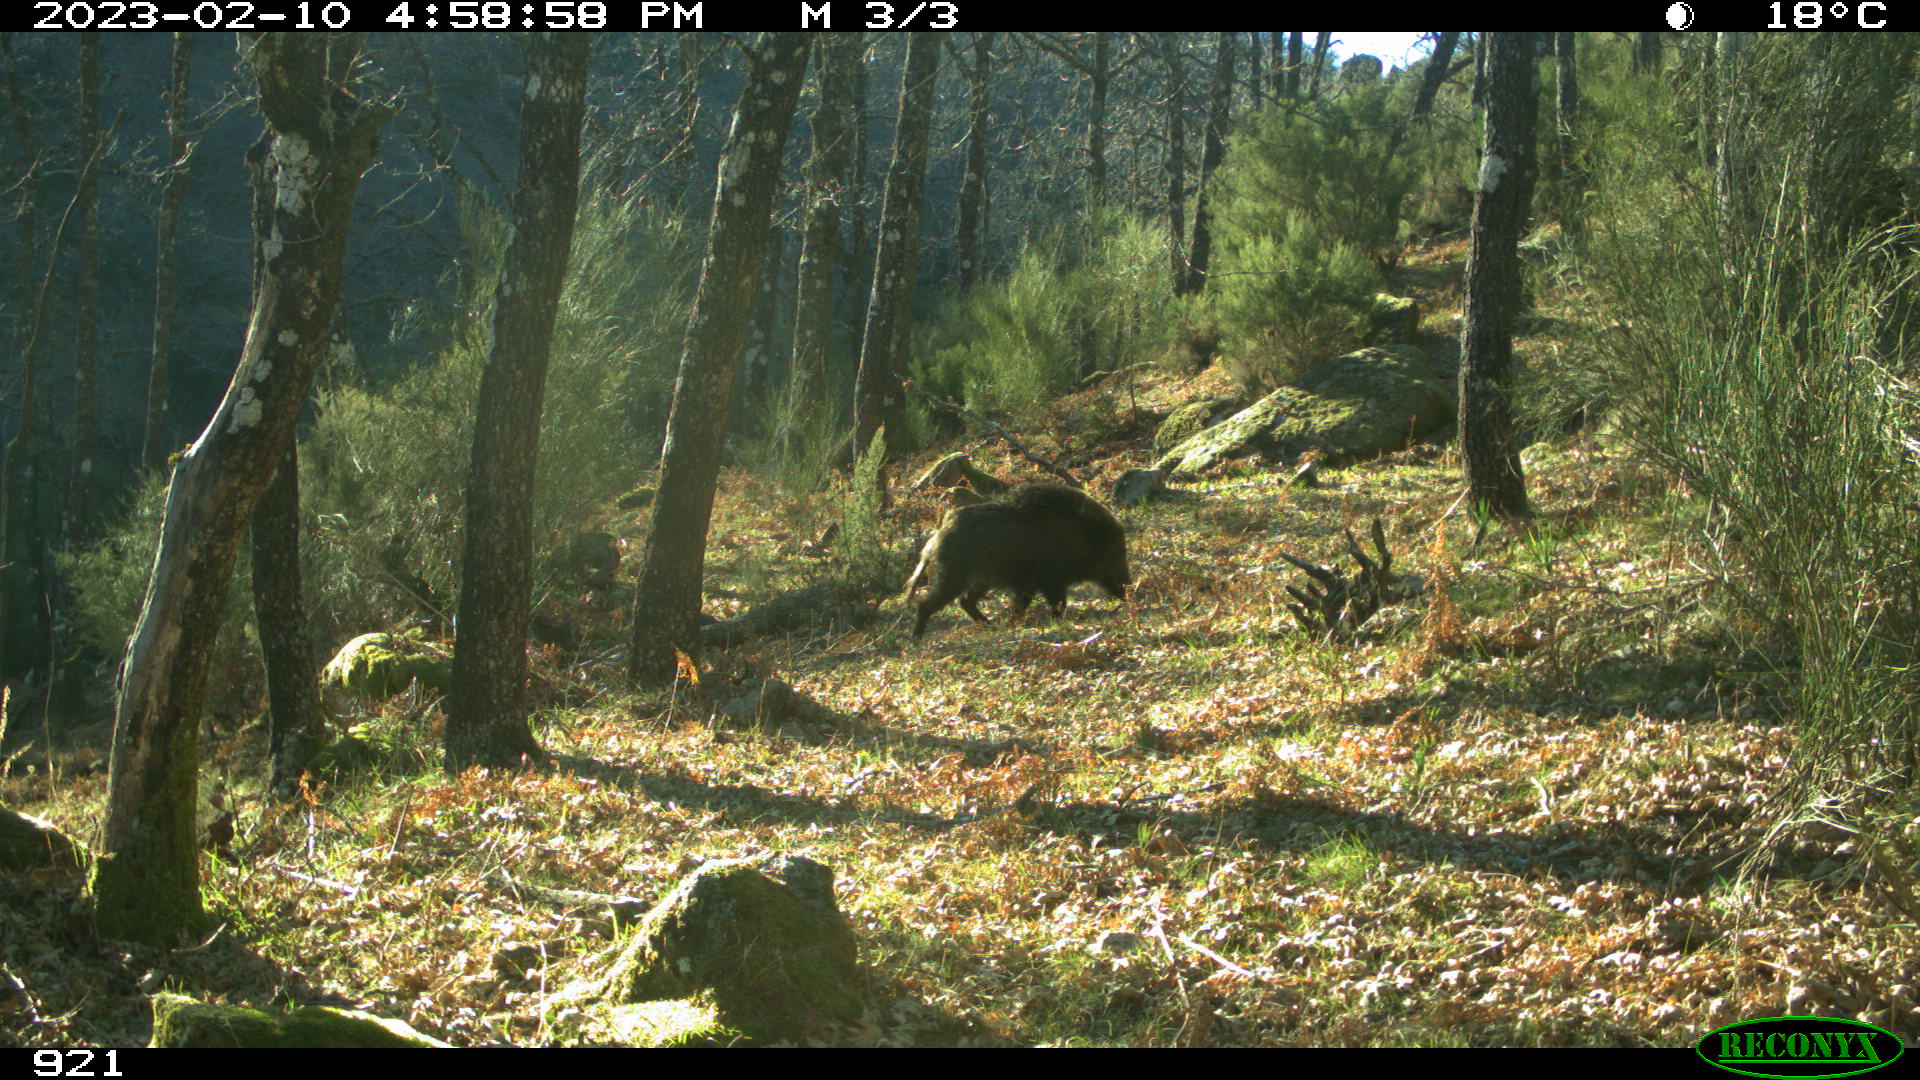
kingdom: Animalia
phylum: Chordata
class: Mammalia
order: Artiodactyla
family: Suidae
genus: Sus
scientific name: Sus scrofa
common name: Wild boar
